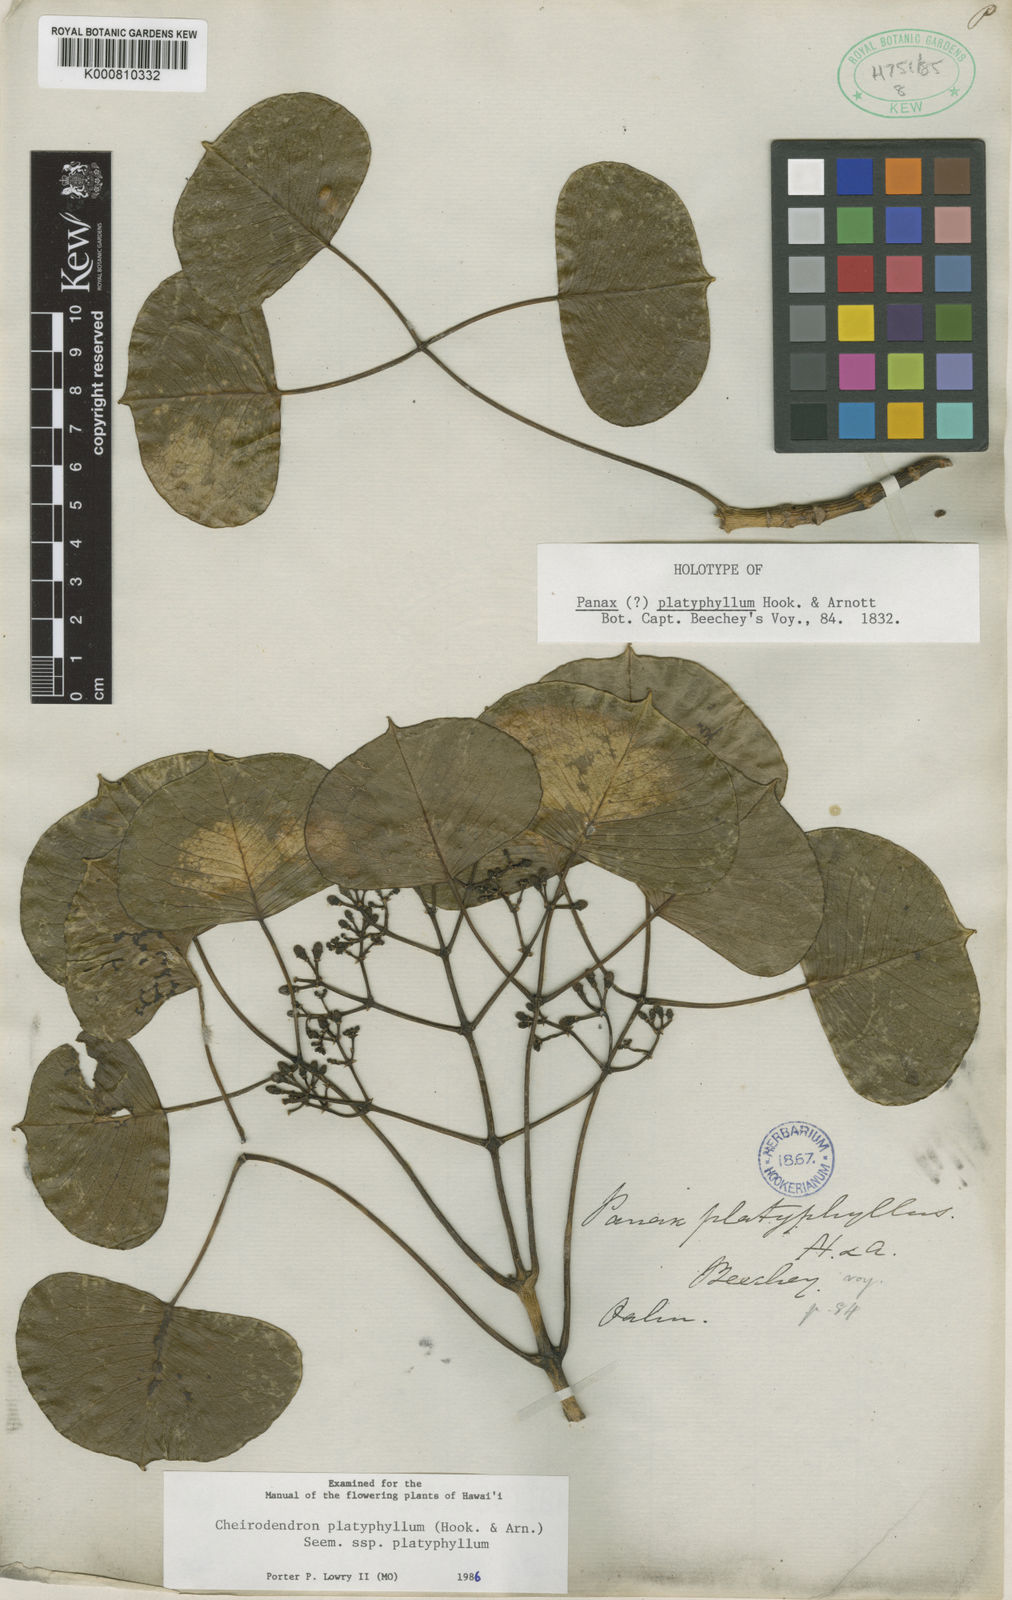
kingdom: Plantae
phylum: Tracheophyta
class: Magnoliopsida
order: Apiales
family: Araliaceae
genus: Cheirodendron
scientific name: Cheirodendron platyphyllum
